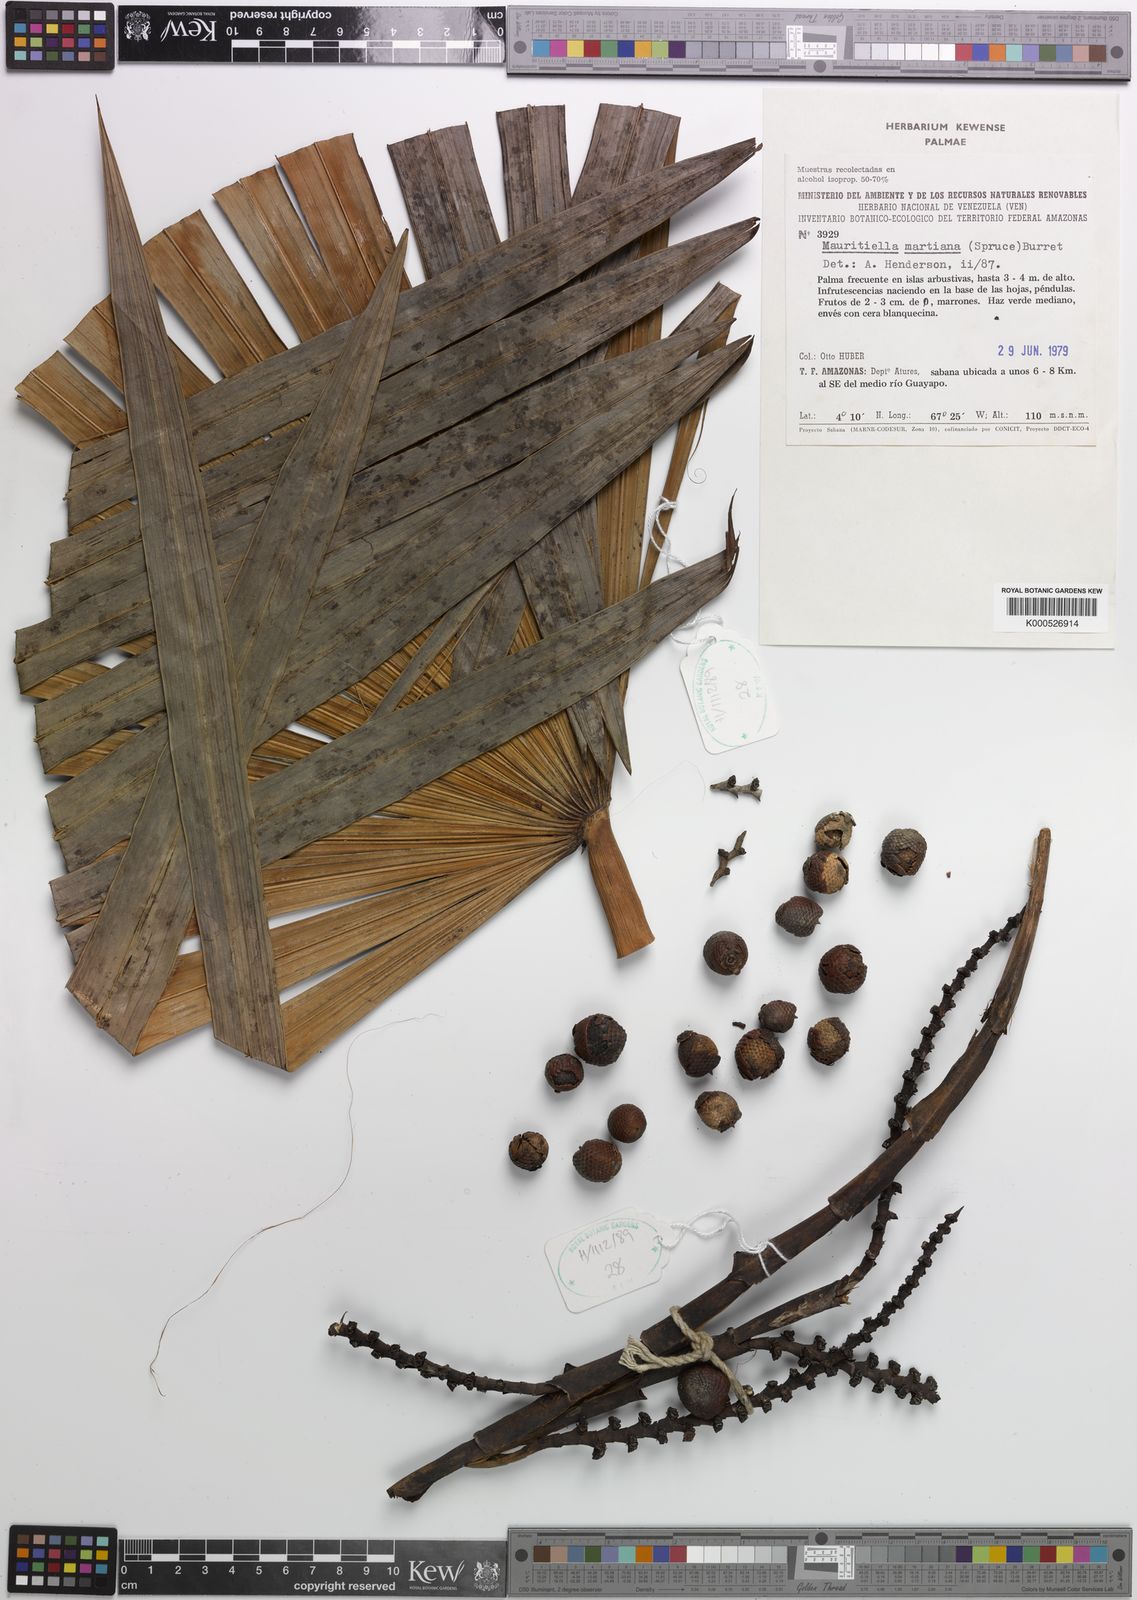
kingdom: Plantae
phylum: Tracheophyta
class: Liliopsida
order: Arecales
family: Arecaceae
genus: Mauritiella
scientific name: Mauritiella armata
